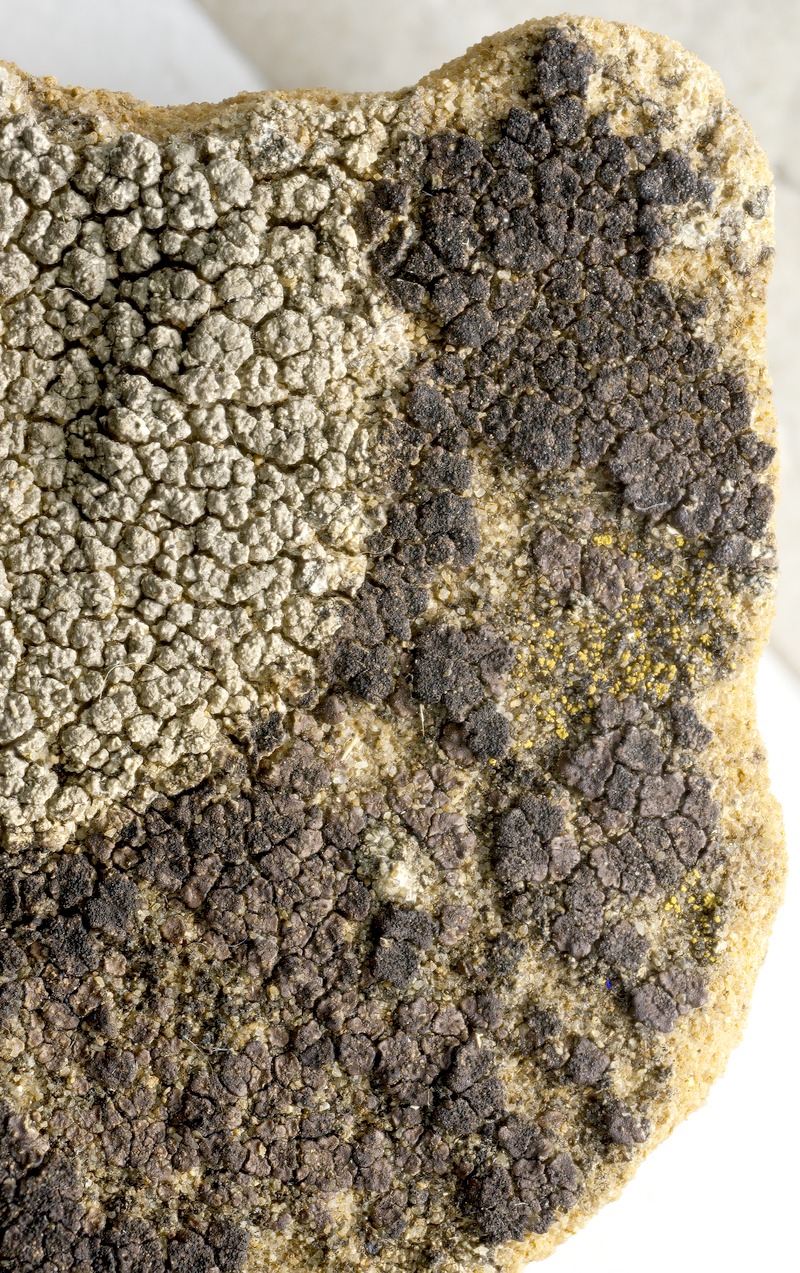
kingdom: Fungi
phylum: Ascomycota
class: Dothideomycetes
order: Mycosphaerellales
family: Mycosphaerellaceae
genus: Stigmidium
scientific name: Stigmidium fuscatae
